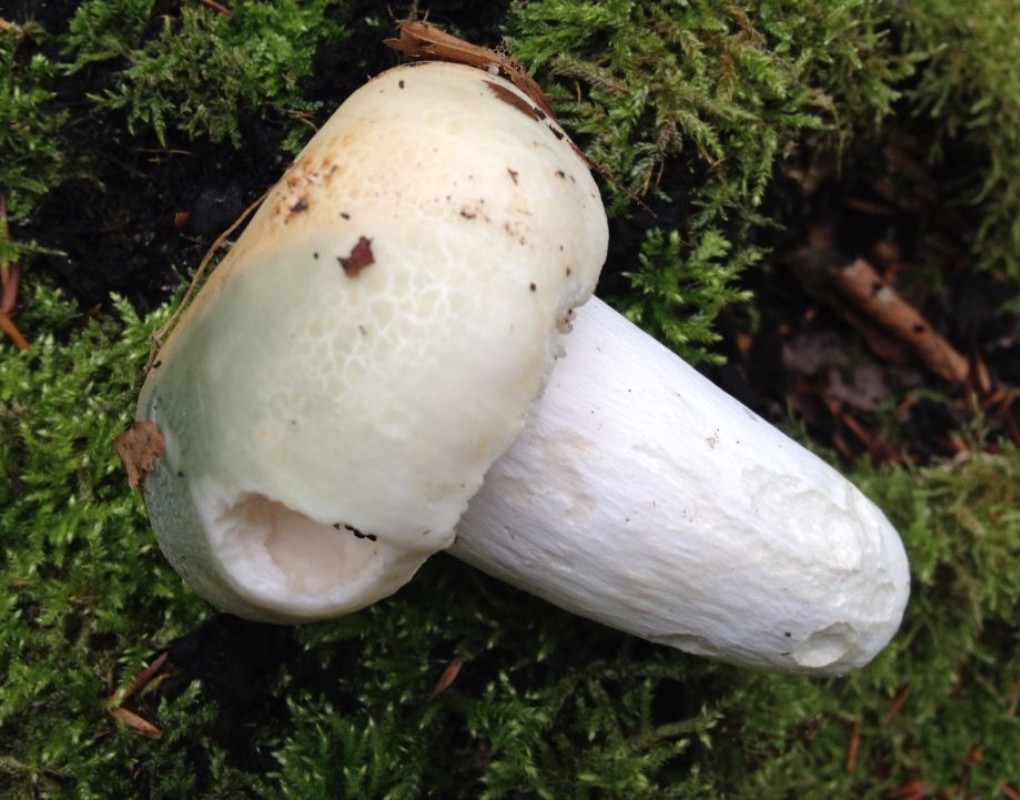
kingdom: Fungi
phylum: Basidiomycota
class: Agaricomycetes
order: Russulales
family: Russulaceae
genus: Russula
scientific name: Russula virescens
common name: spanskgrøn skørhat
